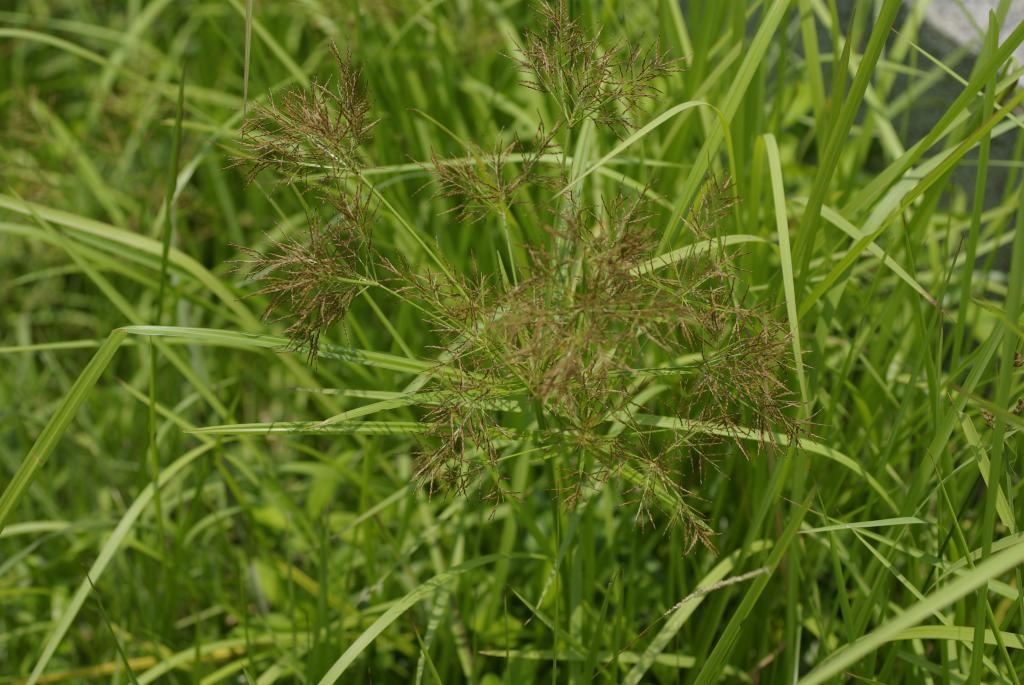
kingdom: Plantae
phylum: Tracheophyta
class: Liliopsida
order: Poales
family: Cyperaceae
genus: Cyperus
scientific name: Cyperus distans
